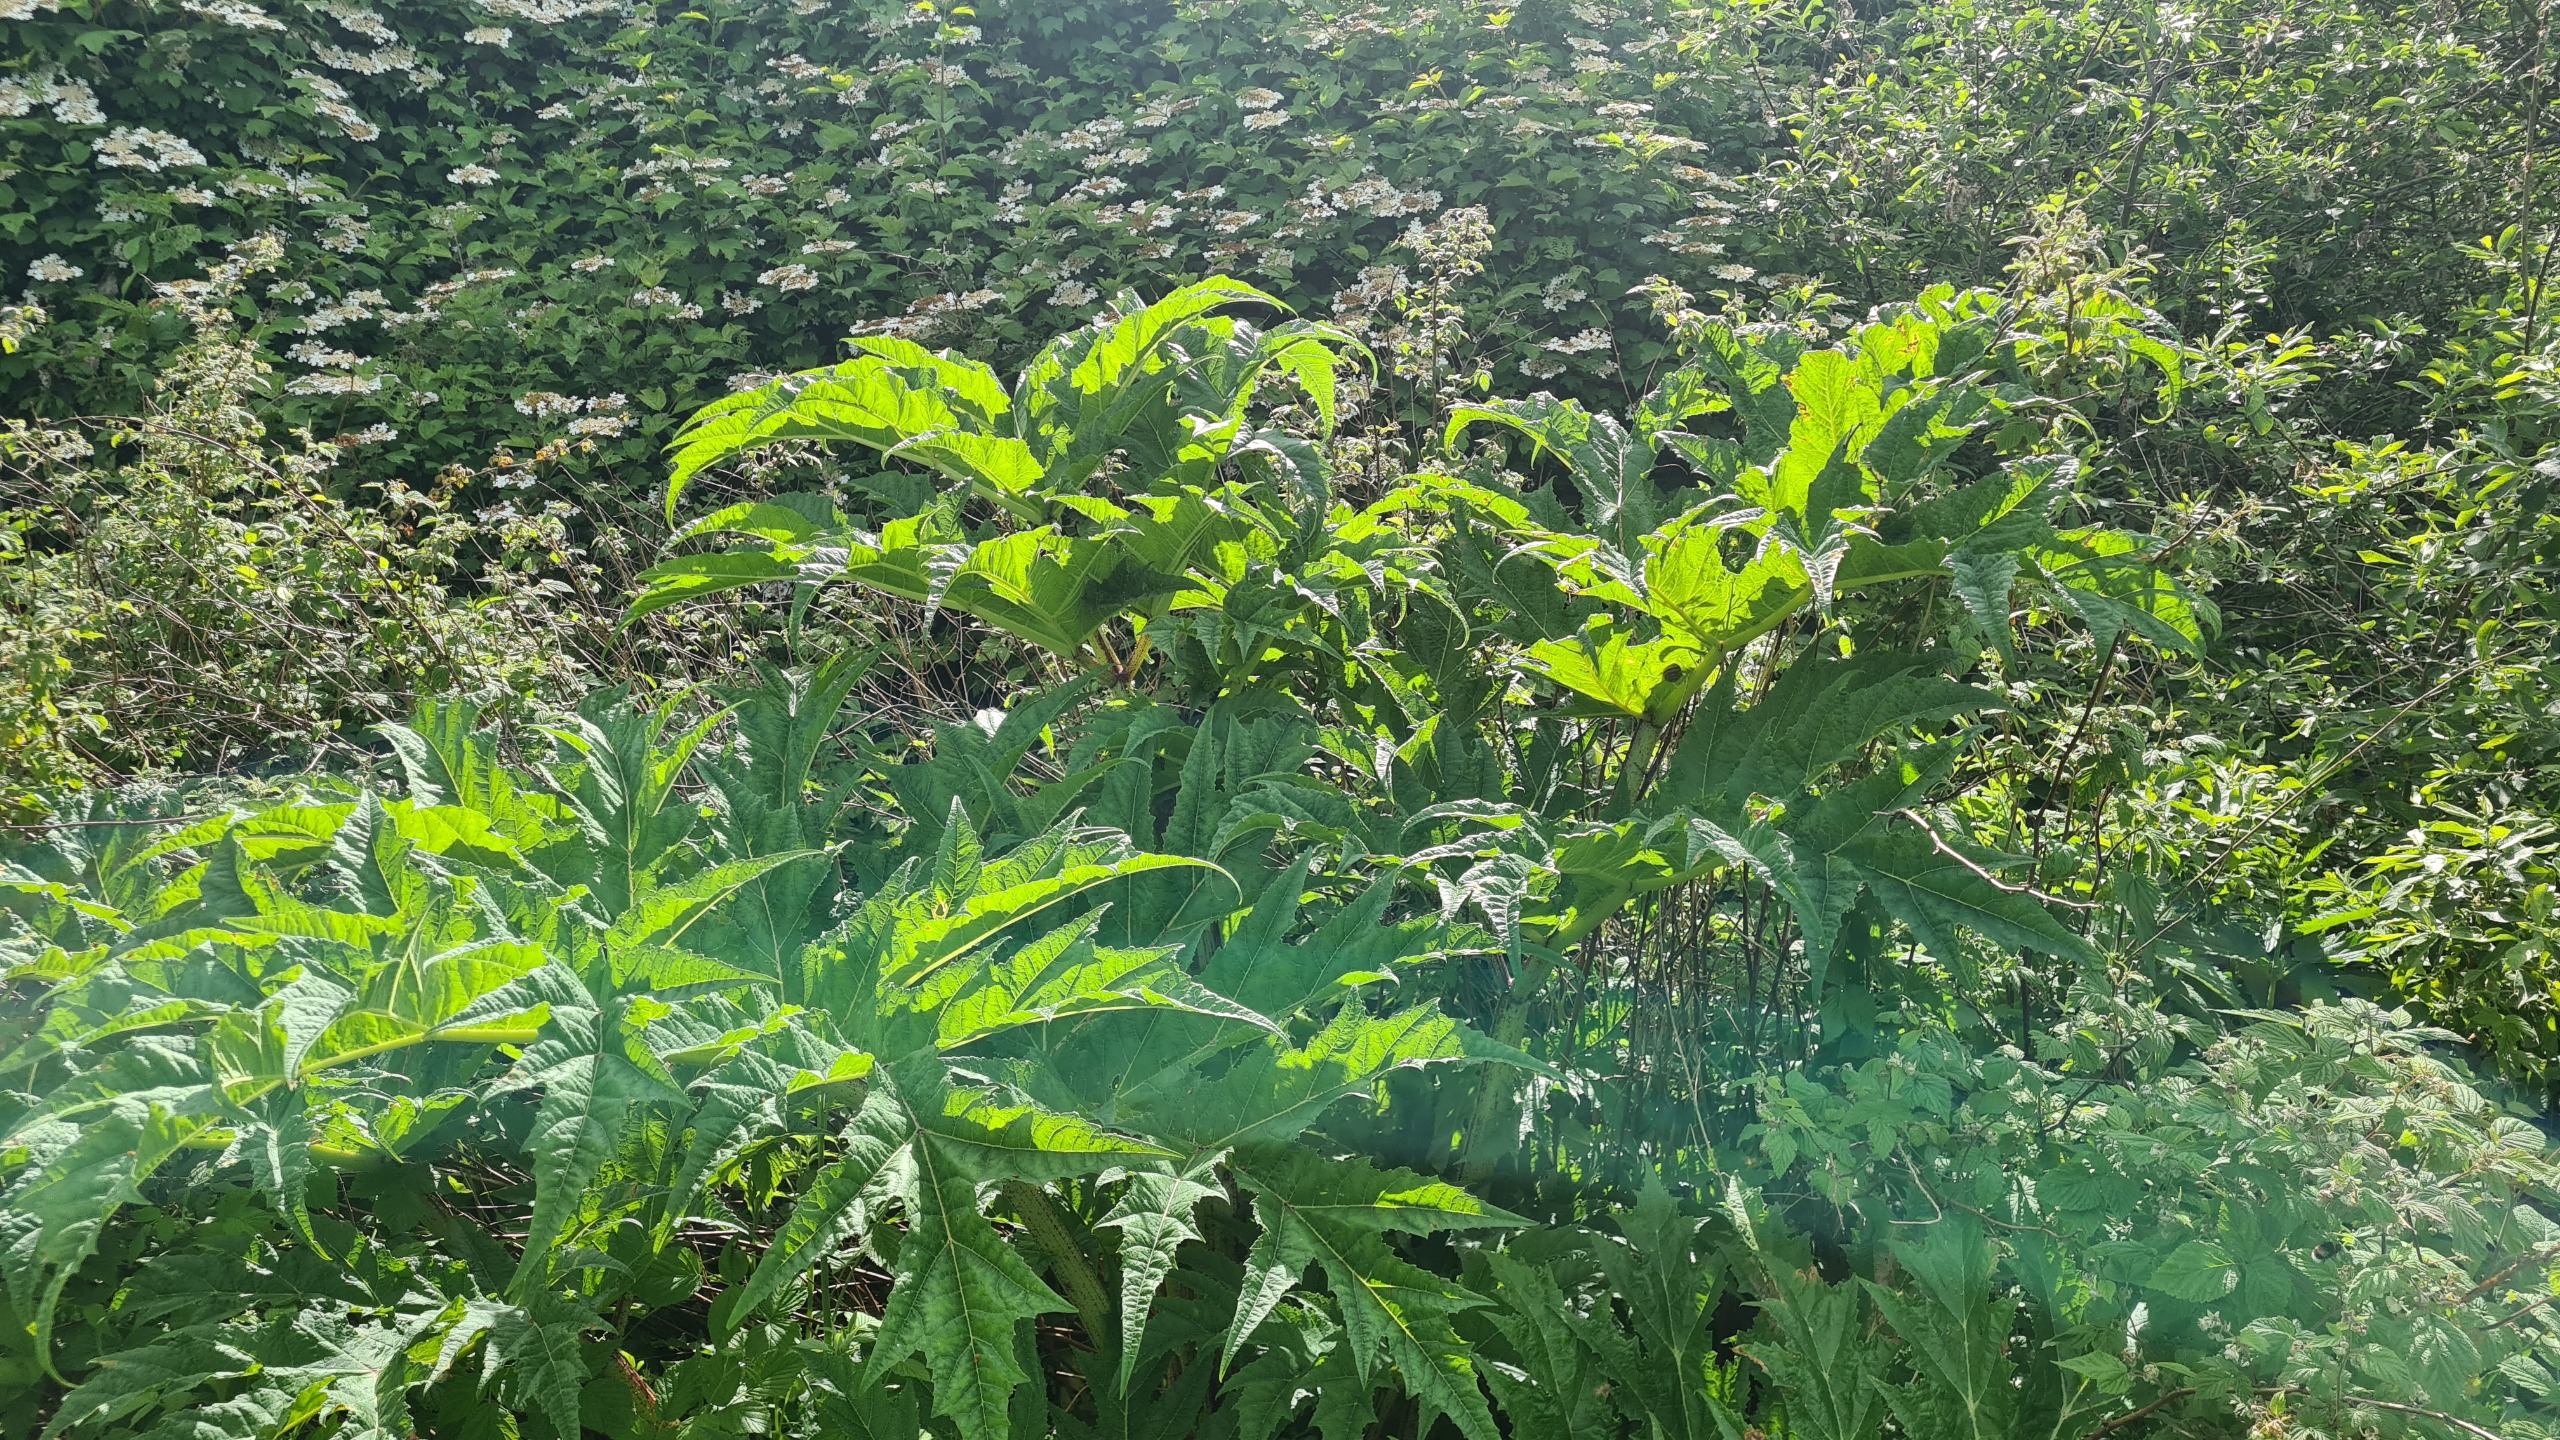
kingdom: Plantae
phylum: Tracheophyta
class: Magnoliopsida
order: Apiales
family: Apiaceae
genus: Heracleum
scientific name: Heracleum mantegazzianum
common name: Kæmpe-bjørneklo
